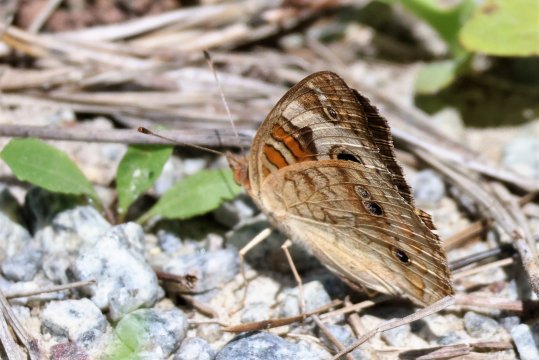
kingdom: Animalia
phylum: Arthropoda
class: Insecta
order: Lepidoptera
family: Nymphalidae
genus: Junonia
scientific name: Junonia coenia
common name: Common Buckeye
